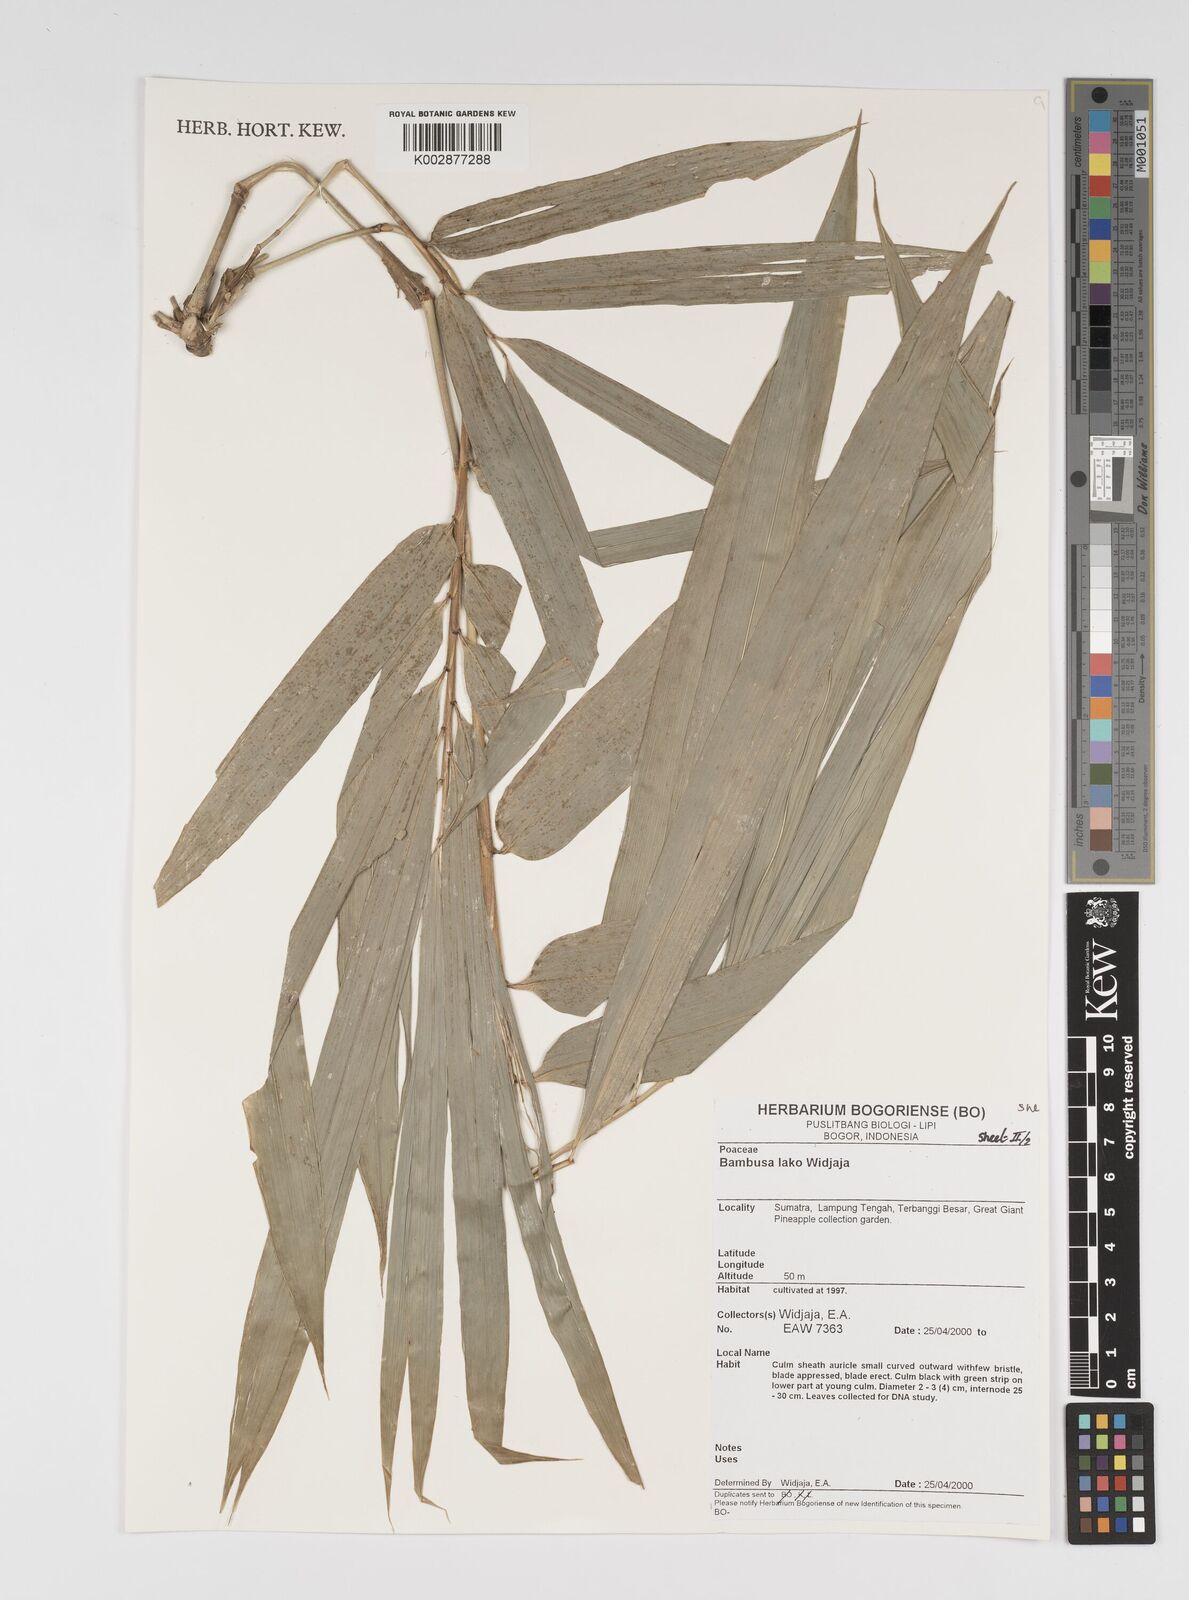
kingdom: Plantae
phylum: Tracheophyta
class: Liliopsida
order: Poales
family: Poaceae
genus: Bambusa
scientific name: Bambusa lako
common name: Timor black bamboo
